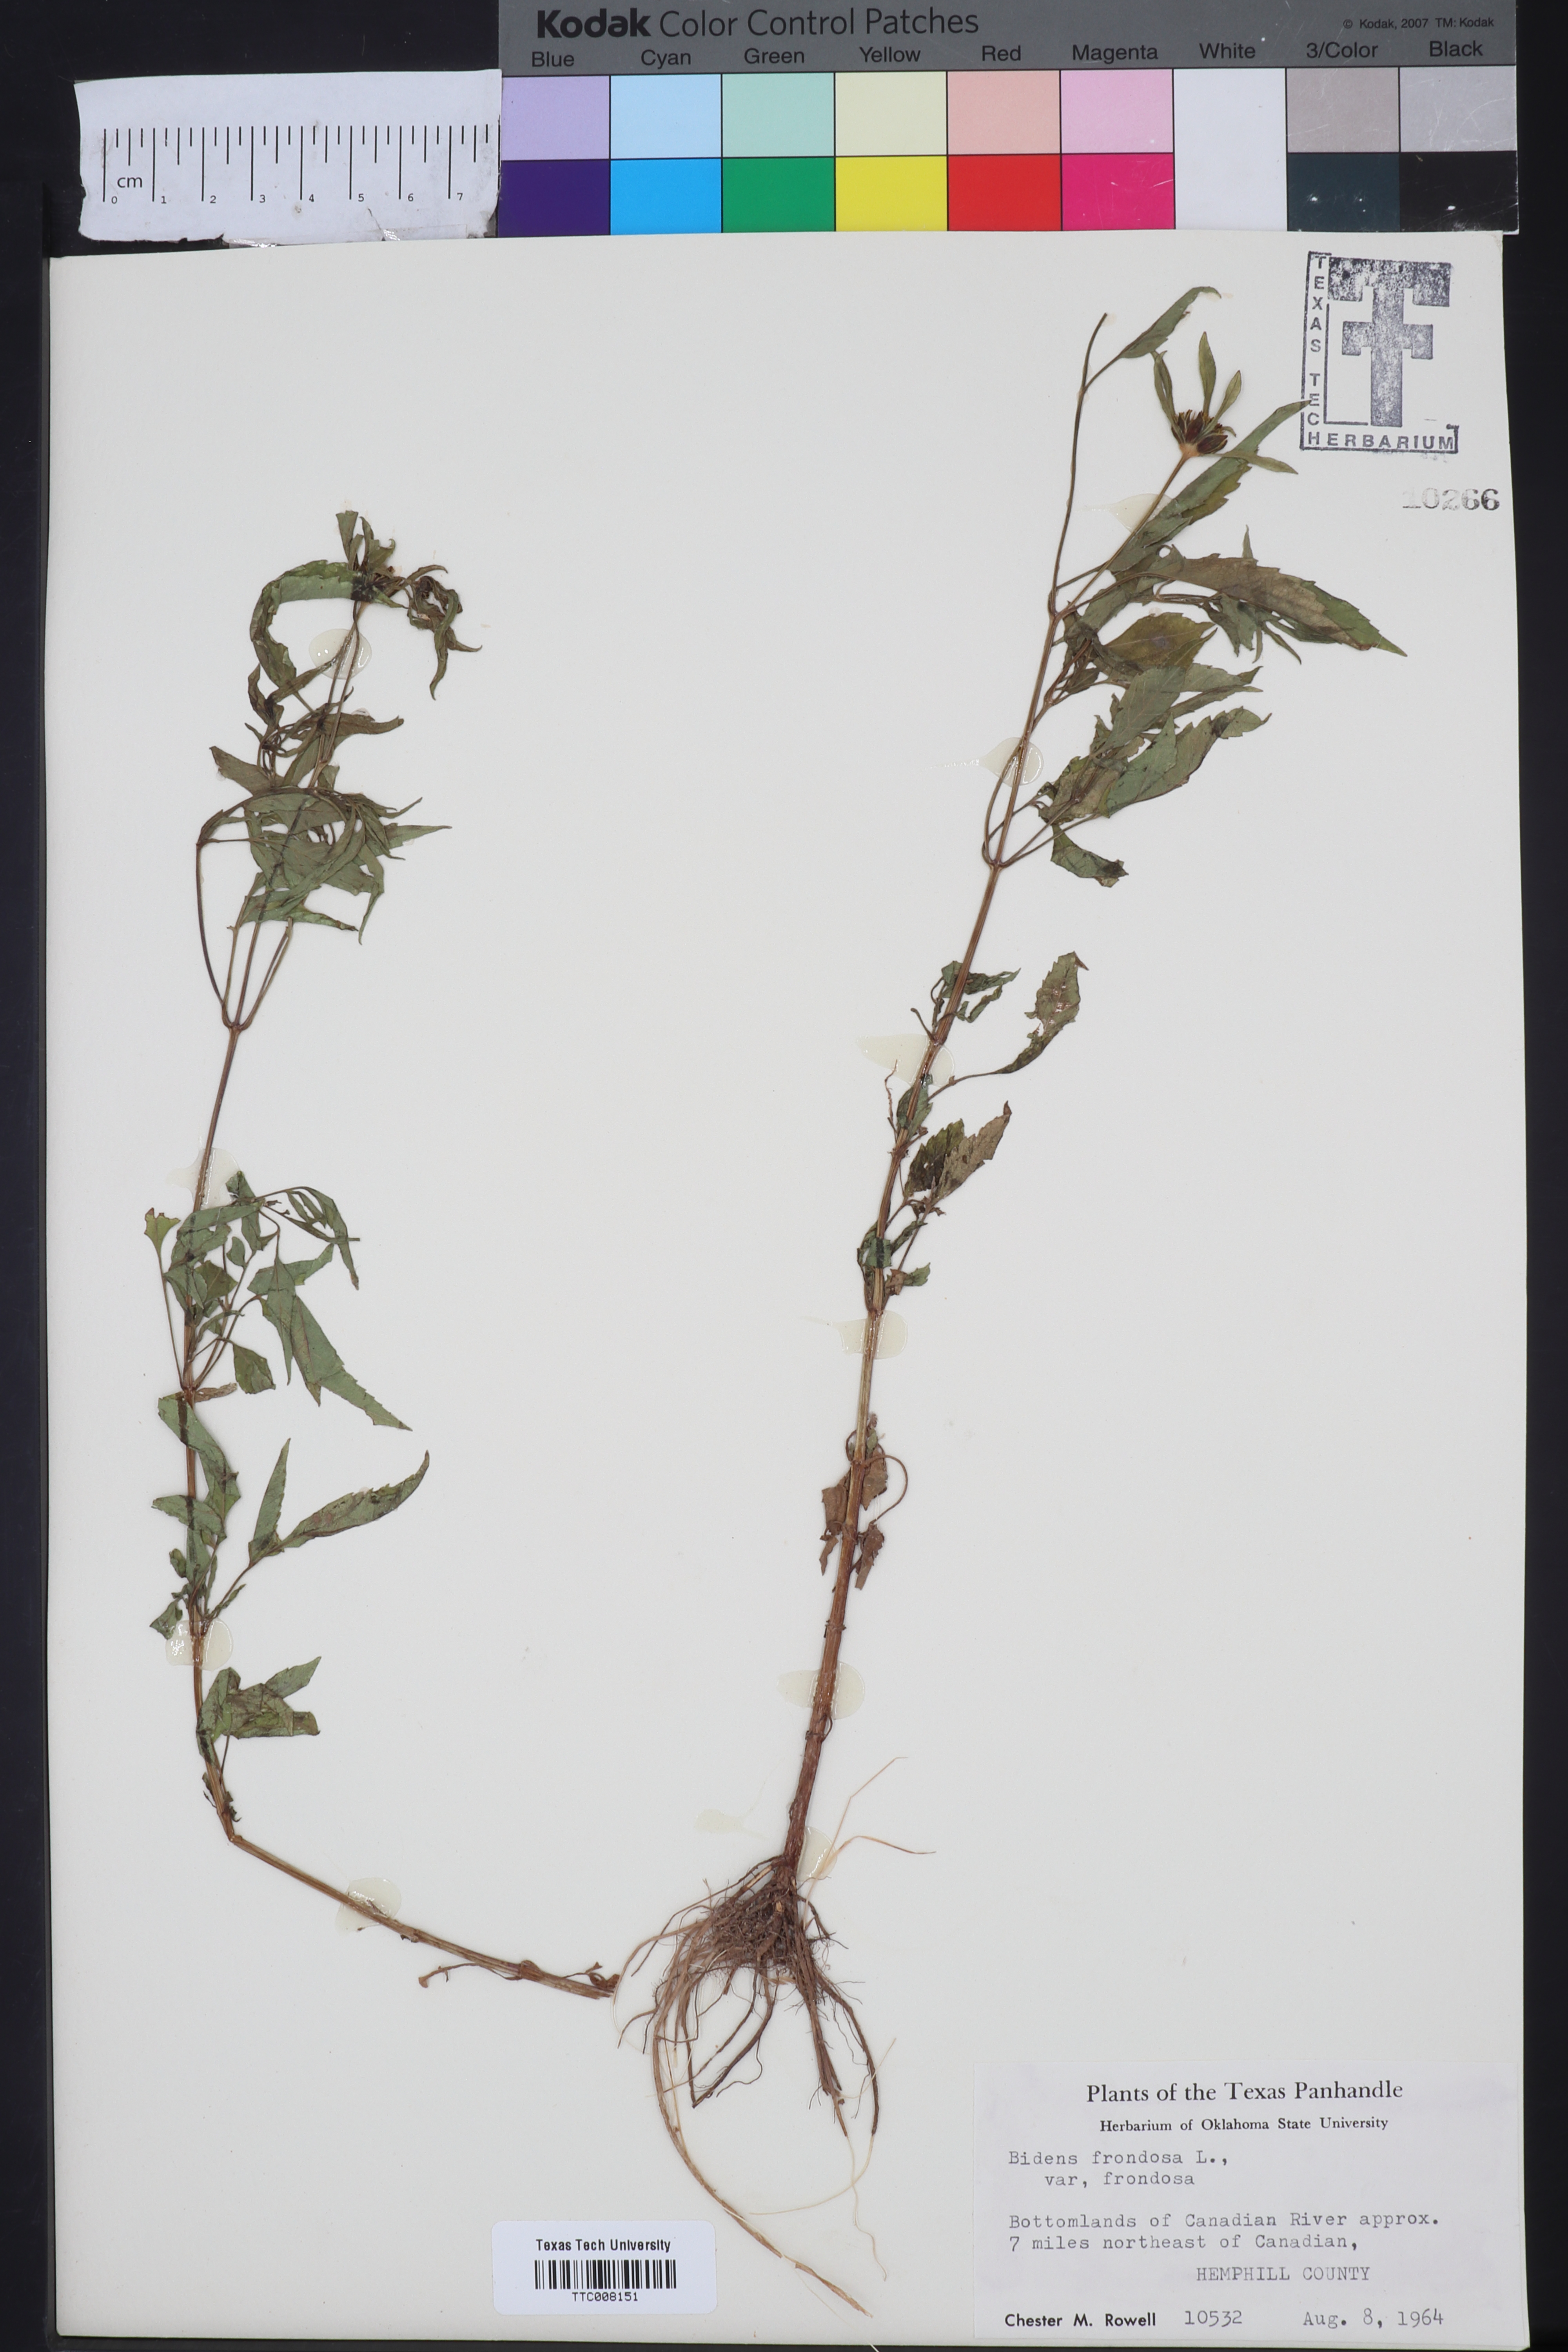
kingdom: Plantae
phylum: Tracheophyta
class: Magnoliopsida
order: Asterales
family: Asteraceae
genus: Bidens
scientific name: Bidens frondosa
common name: Beggarticks
